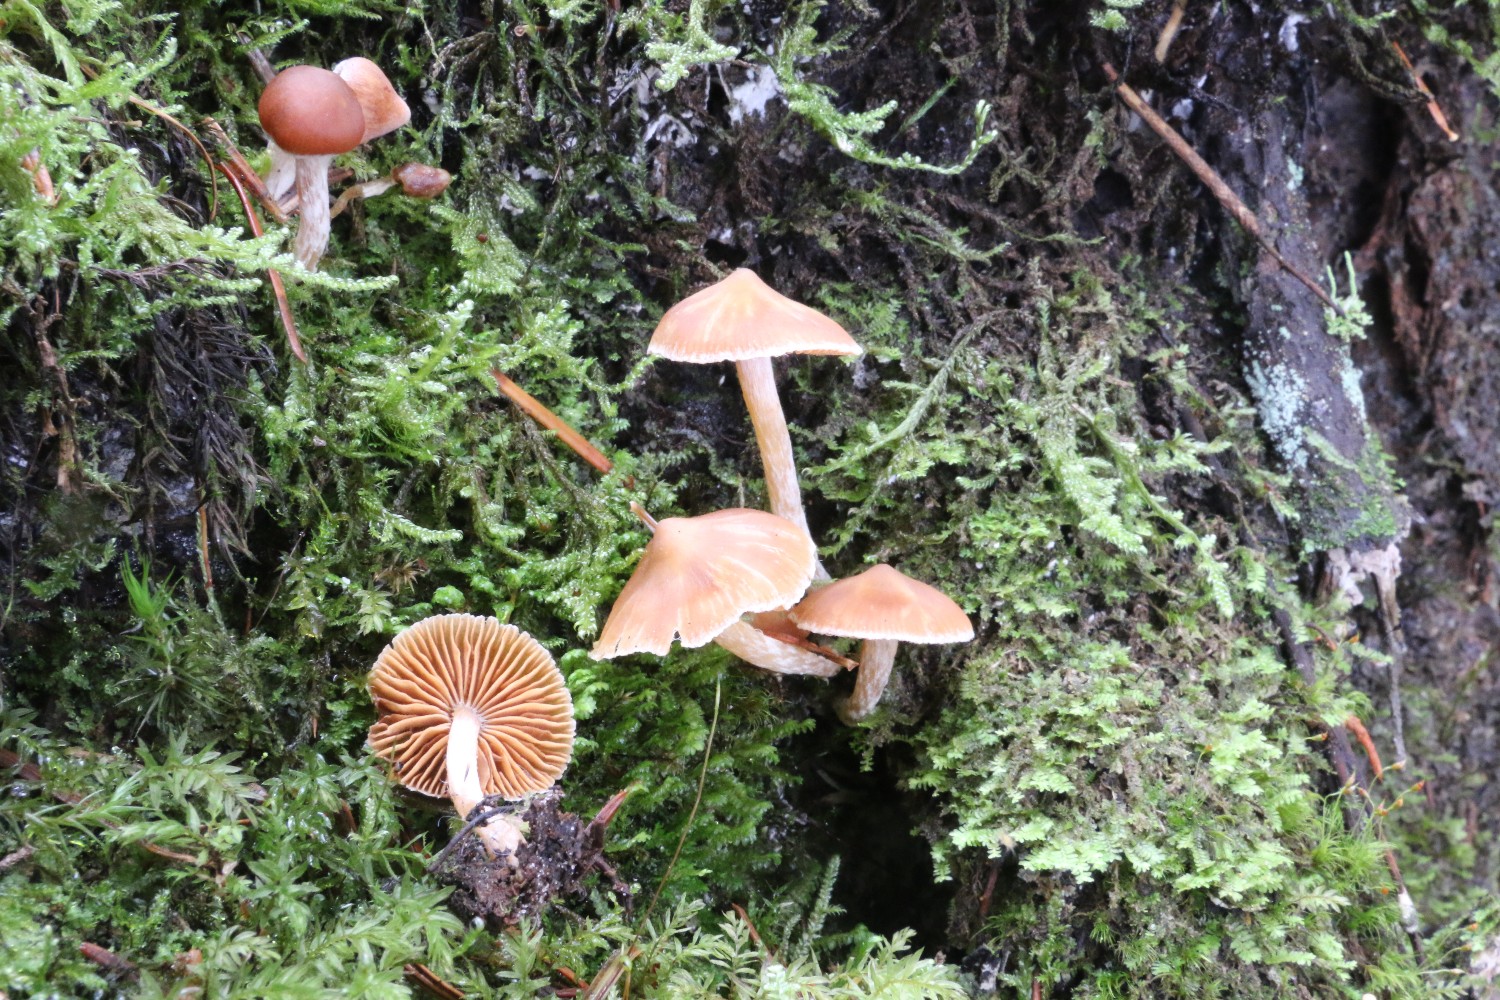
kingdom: Fungi
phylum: Basidiomycota
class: Agaricomycetes
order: Agaricales
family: Cortinariaceae
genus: Cortinarius
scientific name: Cortinarius
